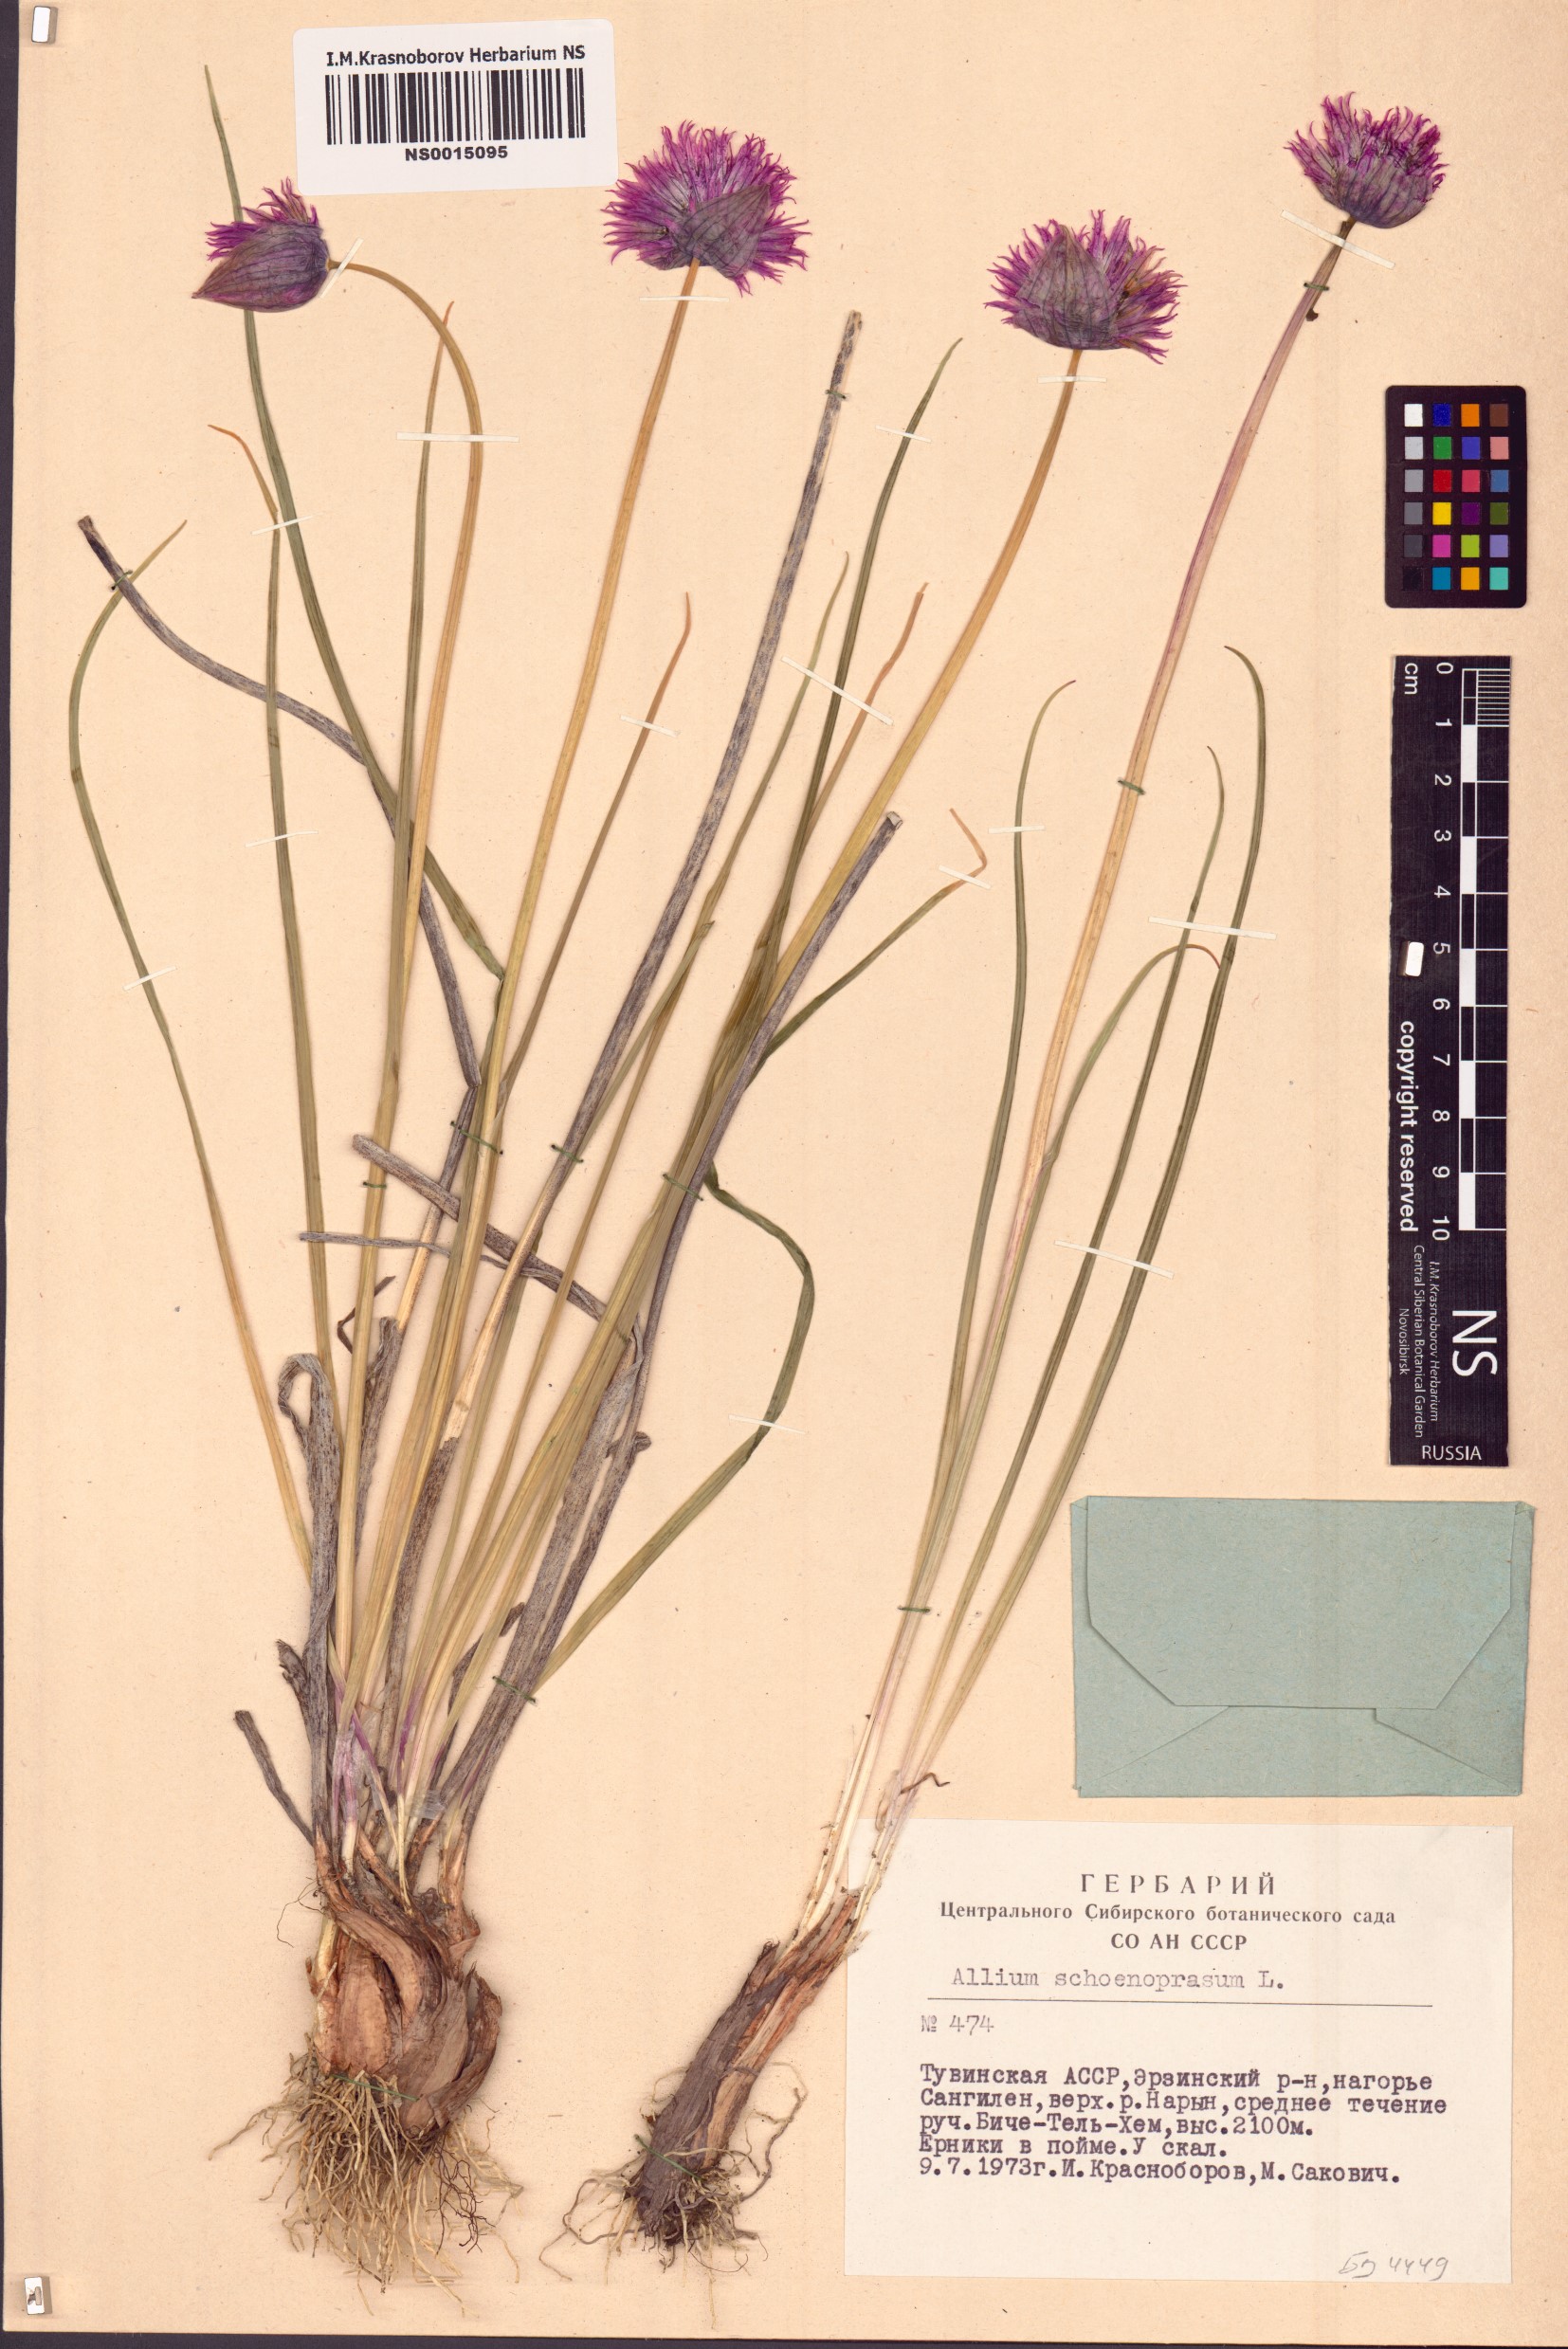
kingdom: Plantae
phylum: Tracheophyta
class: Liliopsida
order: Asparagales
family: Amaryllidaceae
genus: Allium
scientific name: Allium schoenoprasum
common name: Chives
